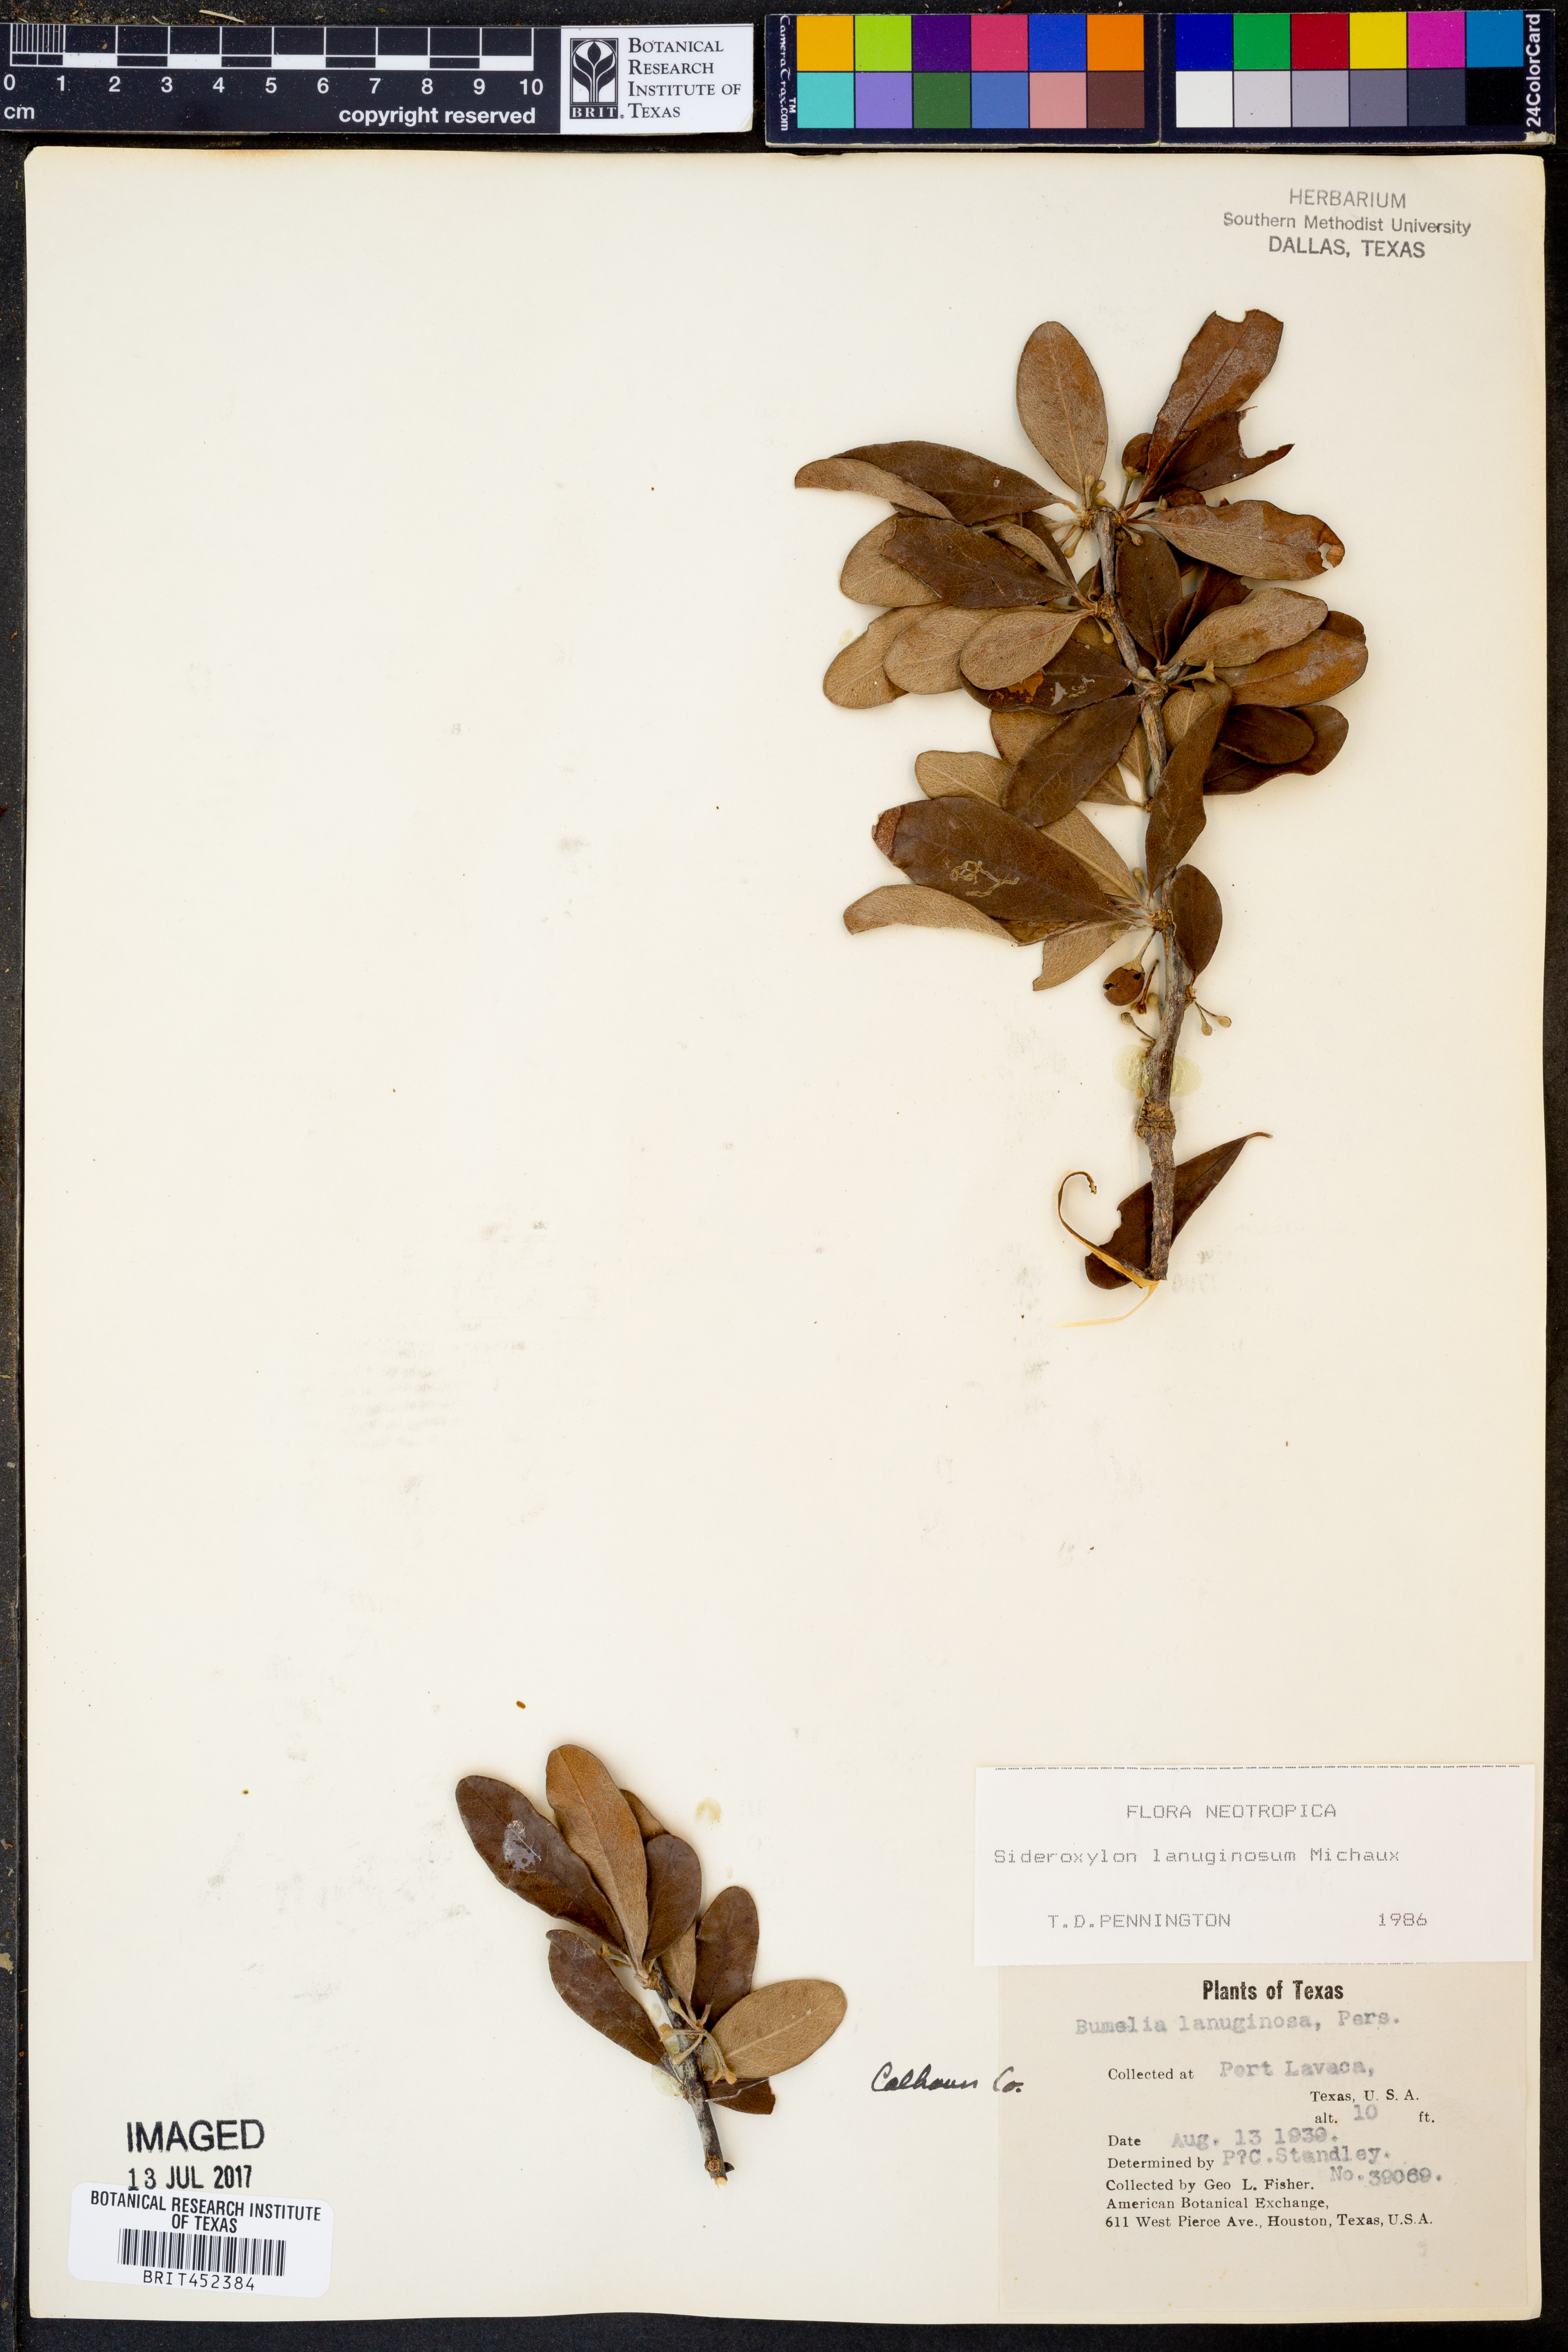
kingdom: Plantae
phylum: Tracheophyta
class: Magnoliopsida
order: Ericales
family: Sapotaceae
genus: Sideroxylon
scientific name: Sideroxylon lanuginosum
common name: Chittamwood
